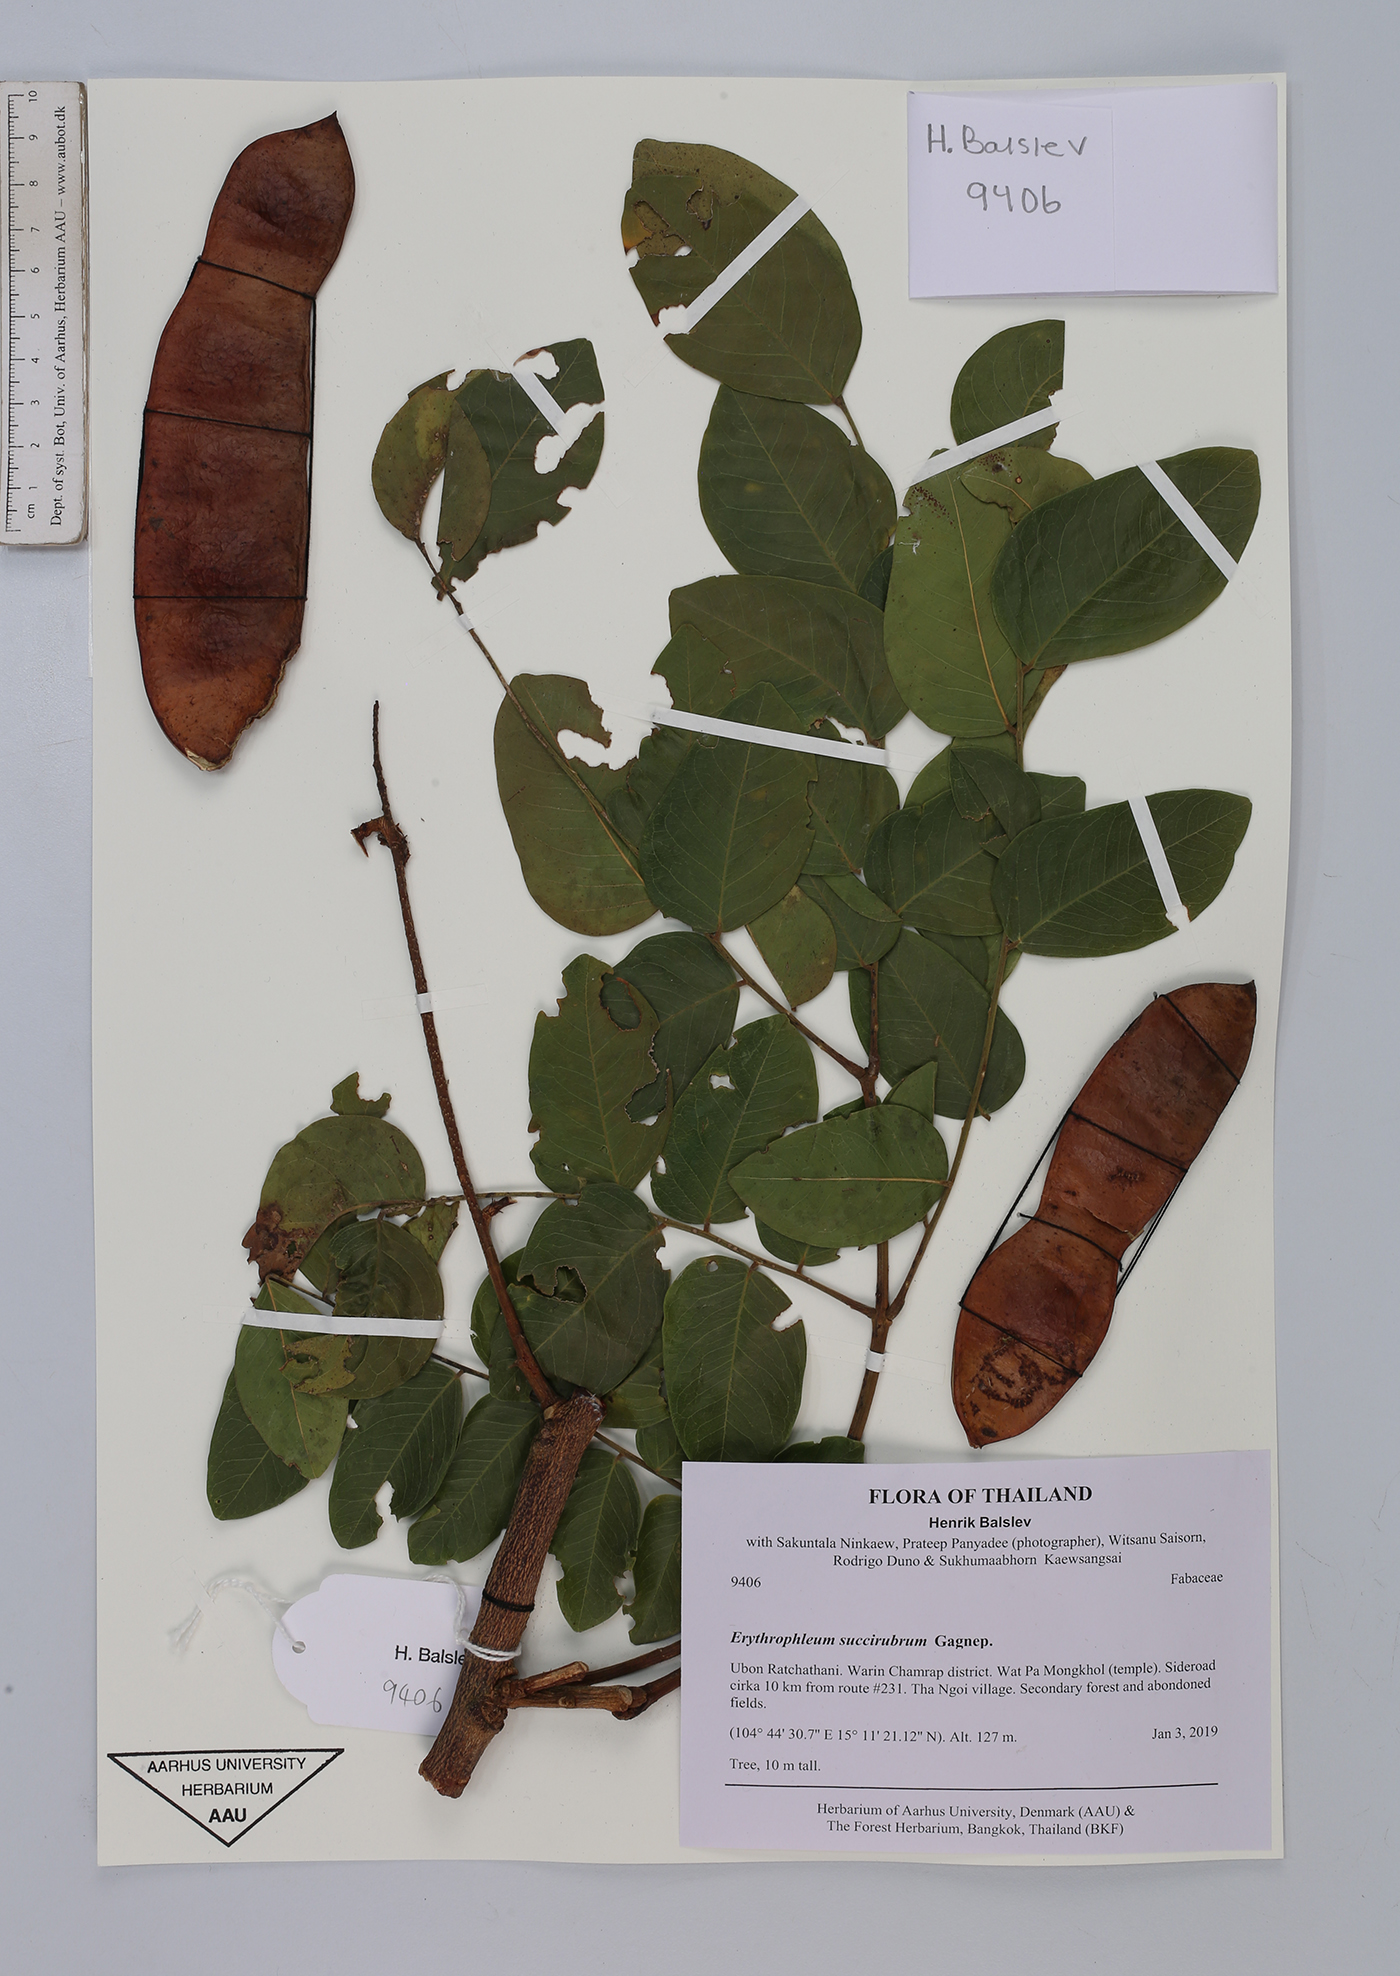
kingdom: Plantae
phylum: Tracheophyta
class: Magnoliopsida
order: Fabales
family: Fabaceae
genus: Erythrophleum
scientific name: Erythrophleum succirubrum
